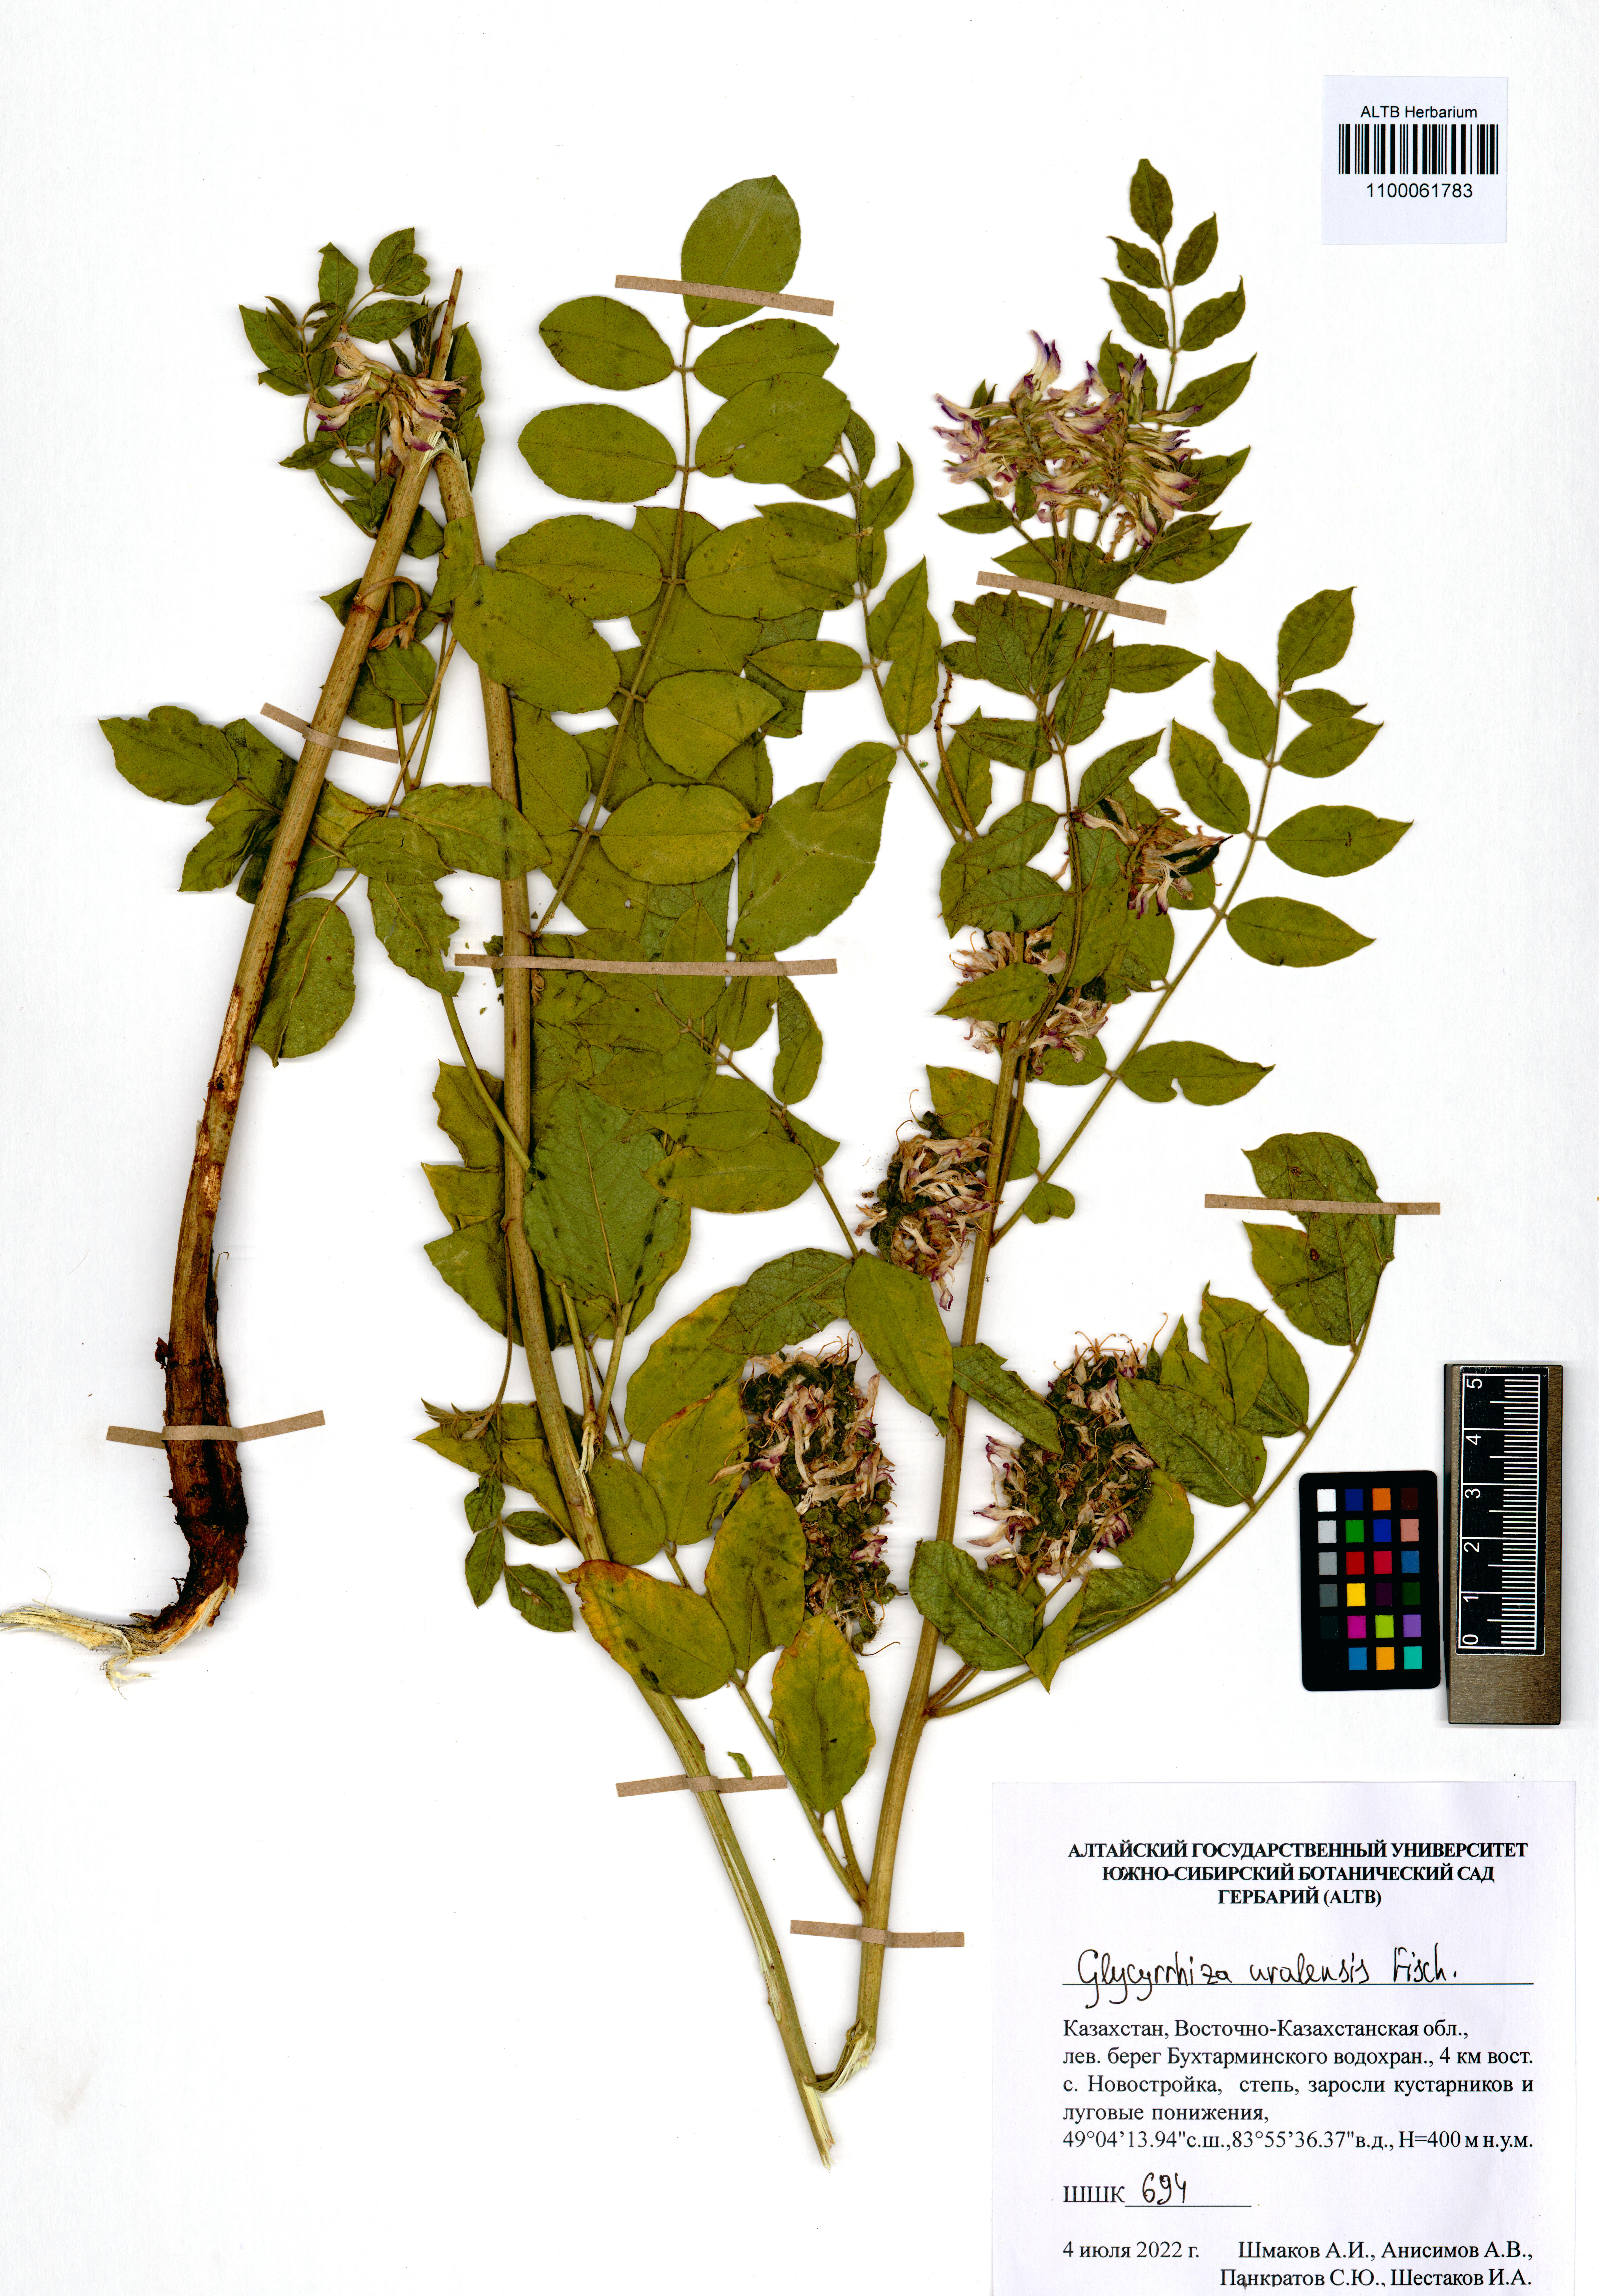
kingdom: Plantae
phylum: Tracheophyta
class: Magnoliopsida
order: Fabales
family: Fabaceae
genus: Glycyrrhiza
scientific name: Glycyrrhiza uralensis
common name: Chinese licorice
